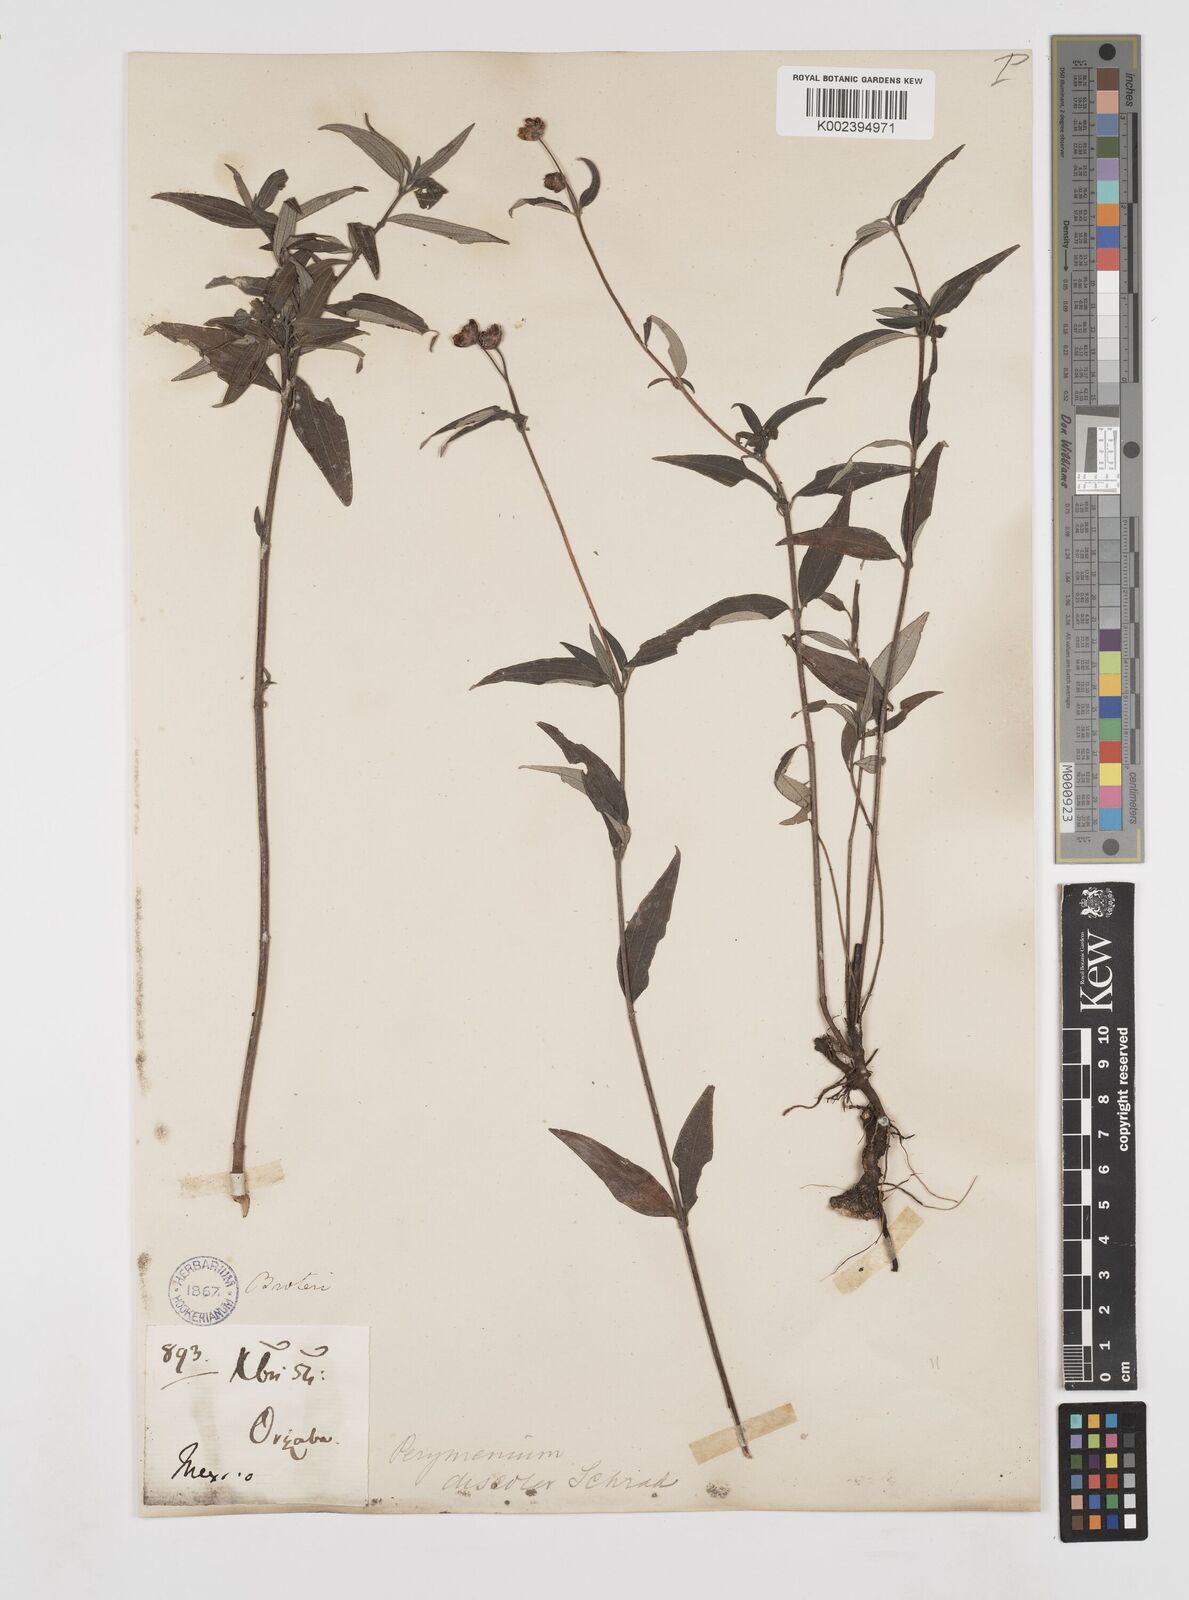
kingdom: Plantae
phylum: Tracheophyta
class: Magnoliopsida
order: Asterales
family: Asteraceae
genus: Perymenium
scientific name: Perymenium discolor
